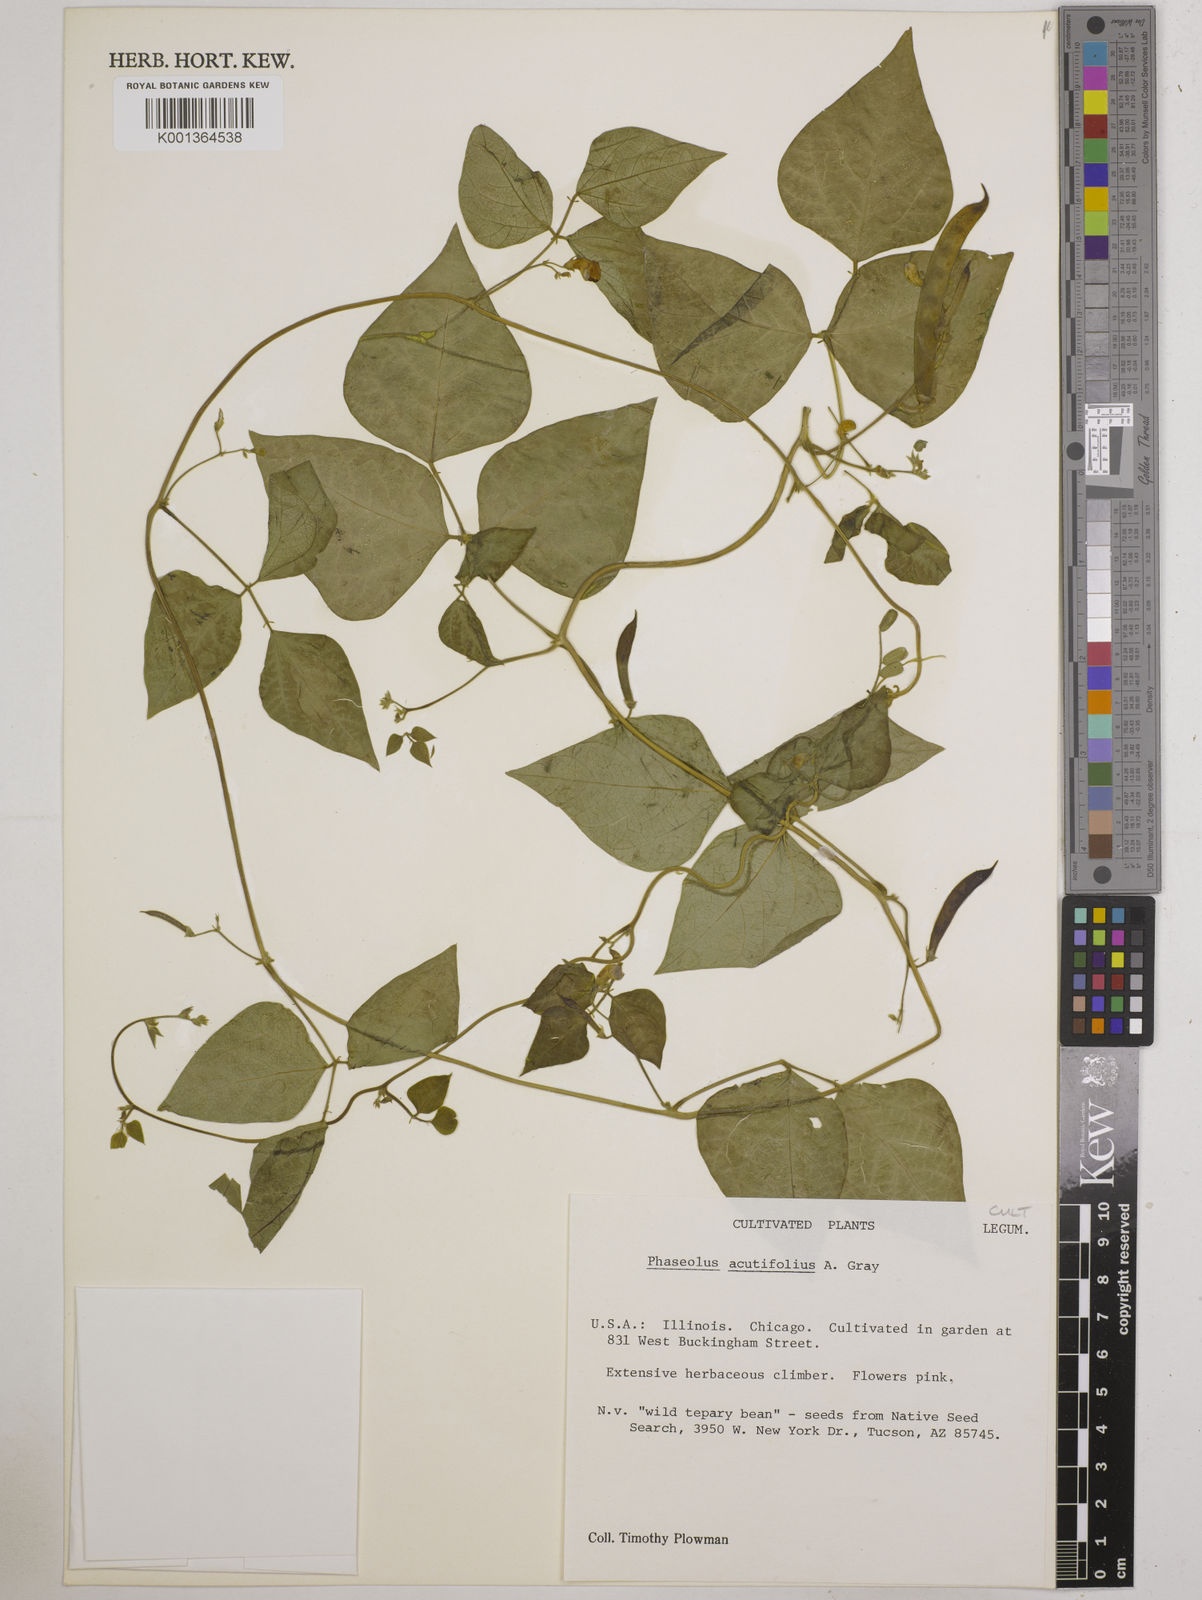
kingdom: Plantae
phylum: Tracheophyta
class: Magnoliopsida
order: Fabales
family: Fabaceae
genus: Phaseolus
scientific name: Phaseolus acutifolius
